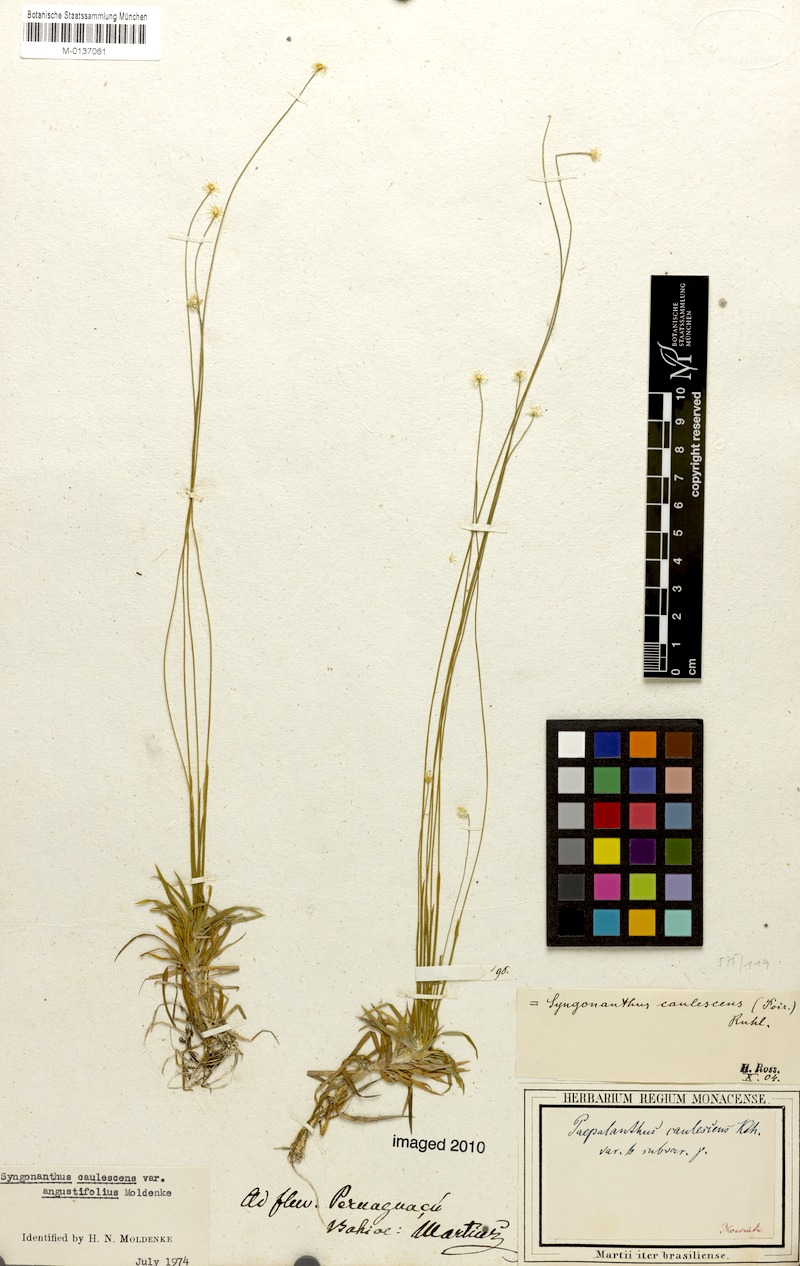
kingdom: Plantae
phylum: Tracheophyta
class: Liliopsida
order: Poales
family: Eriocaulaceae
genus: Syngonanthus
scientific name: Syngonanthus caulescens
